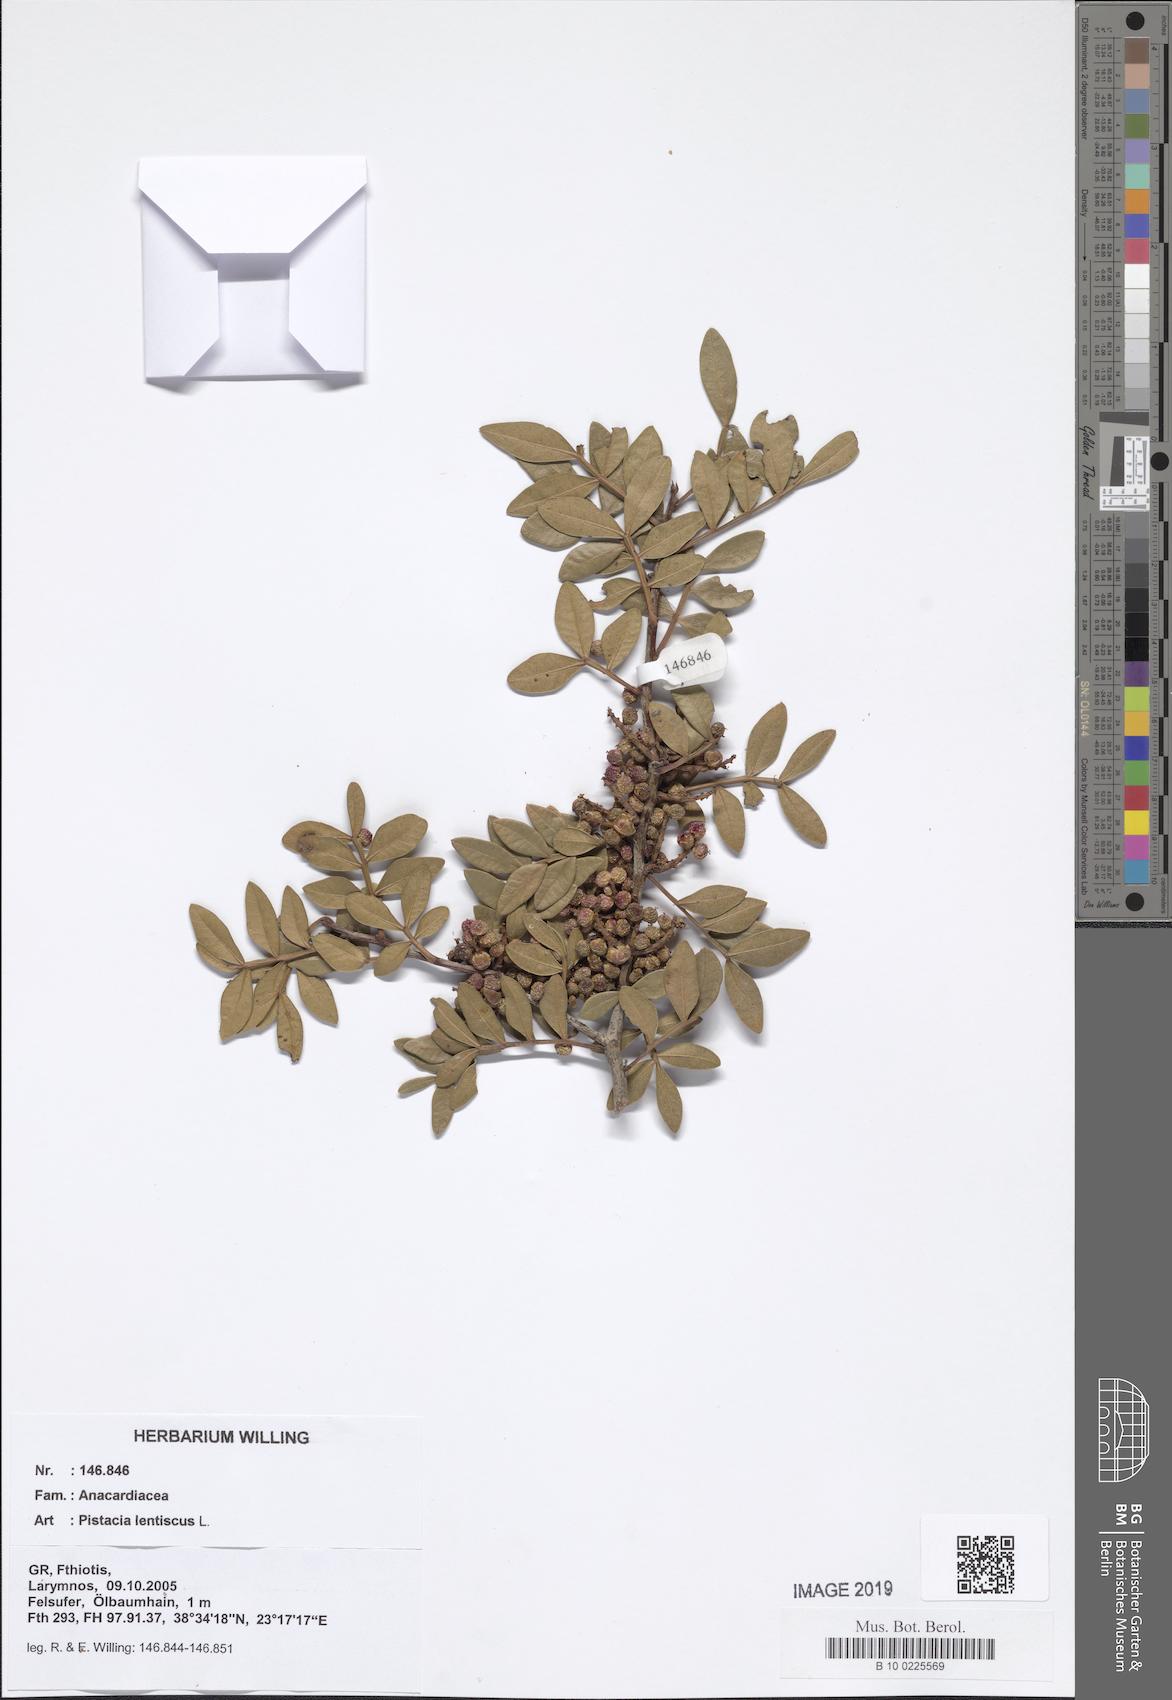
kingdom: Plantae
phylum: Tracheophyta
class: Magnoliopsida
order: Sapindales
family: Anacardiaceae
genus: Pistacia
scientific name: Pistacia lentiscus
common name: Lentisk
